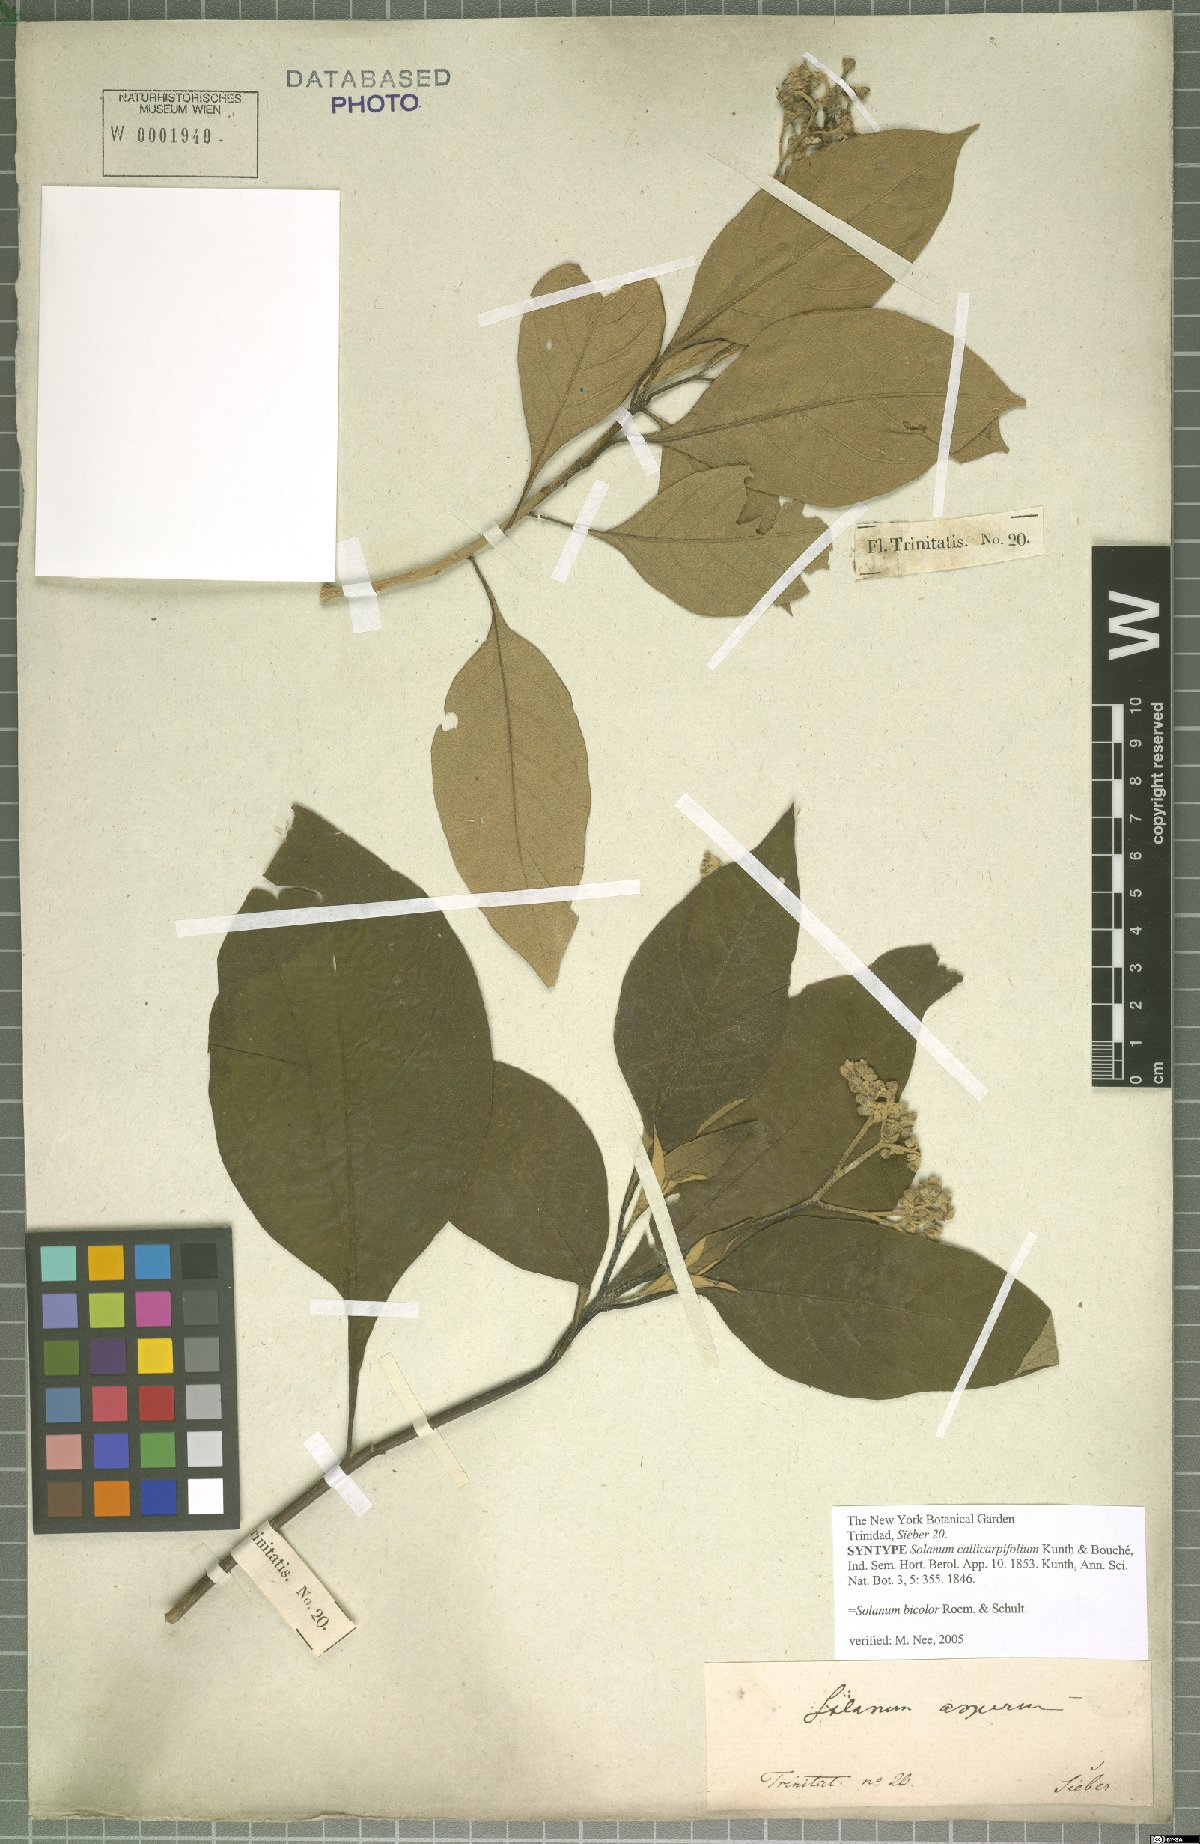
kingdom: Plantae
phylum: Tracheophyta
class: Magnoliopsida
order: Solanales
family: Solanaceae
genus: Solanum
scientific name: Solanum bicolor
